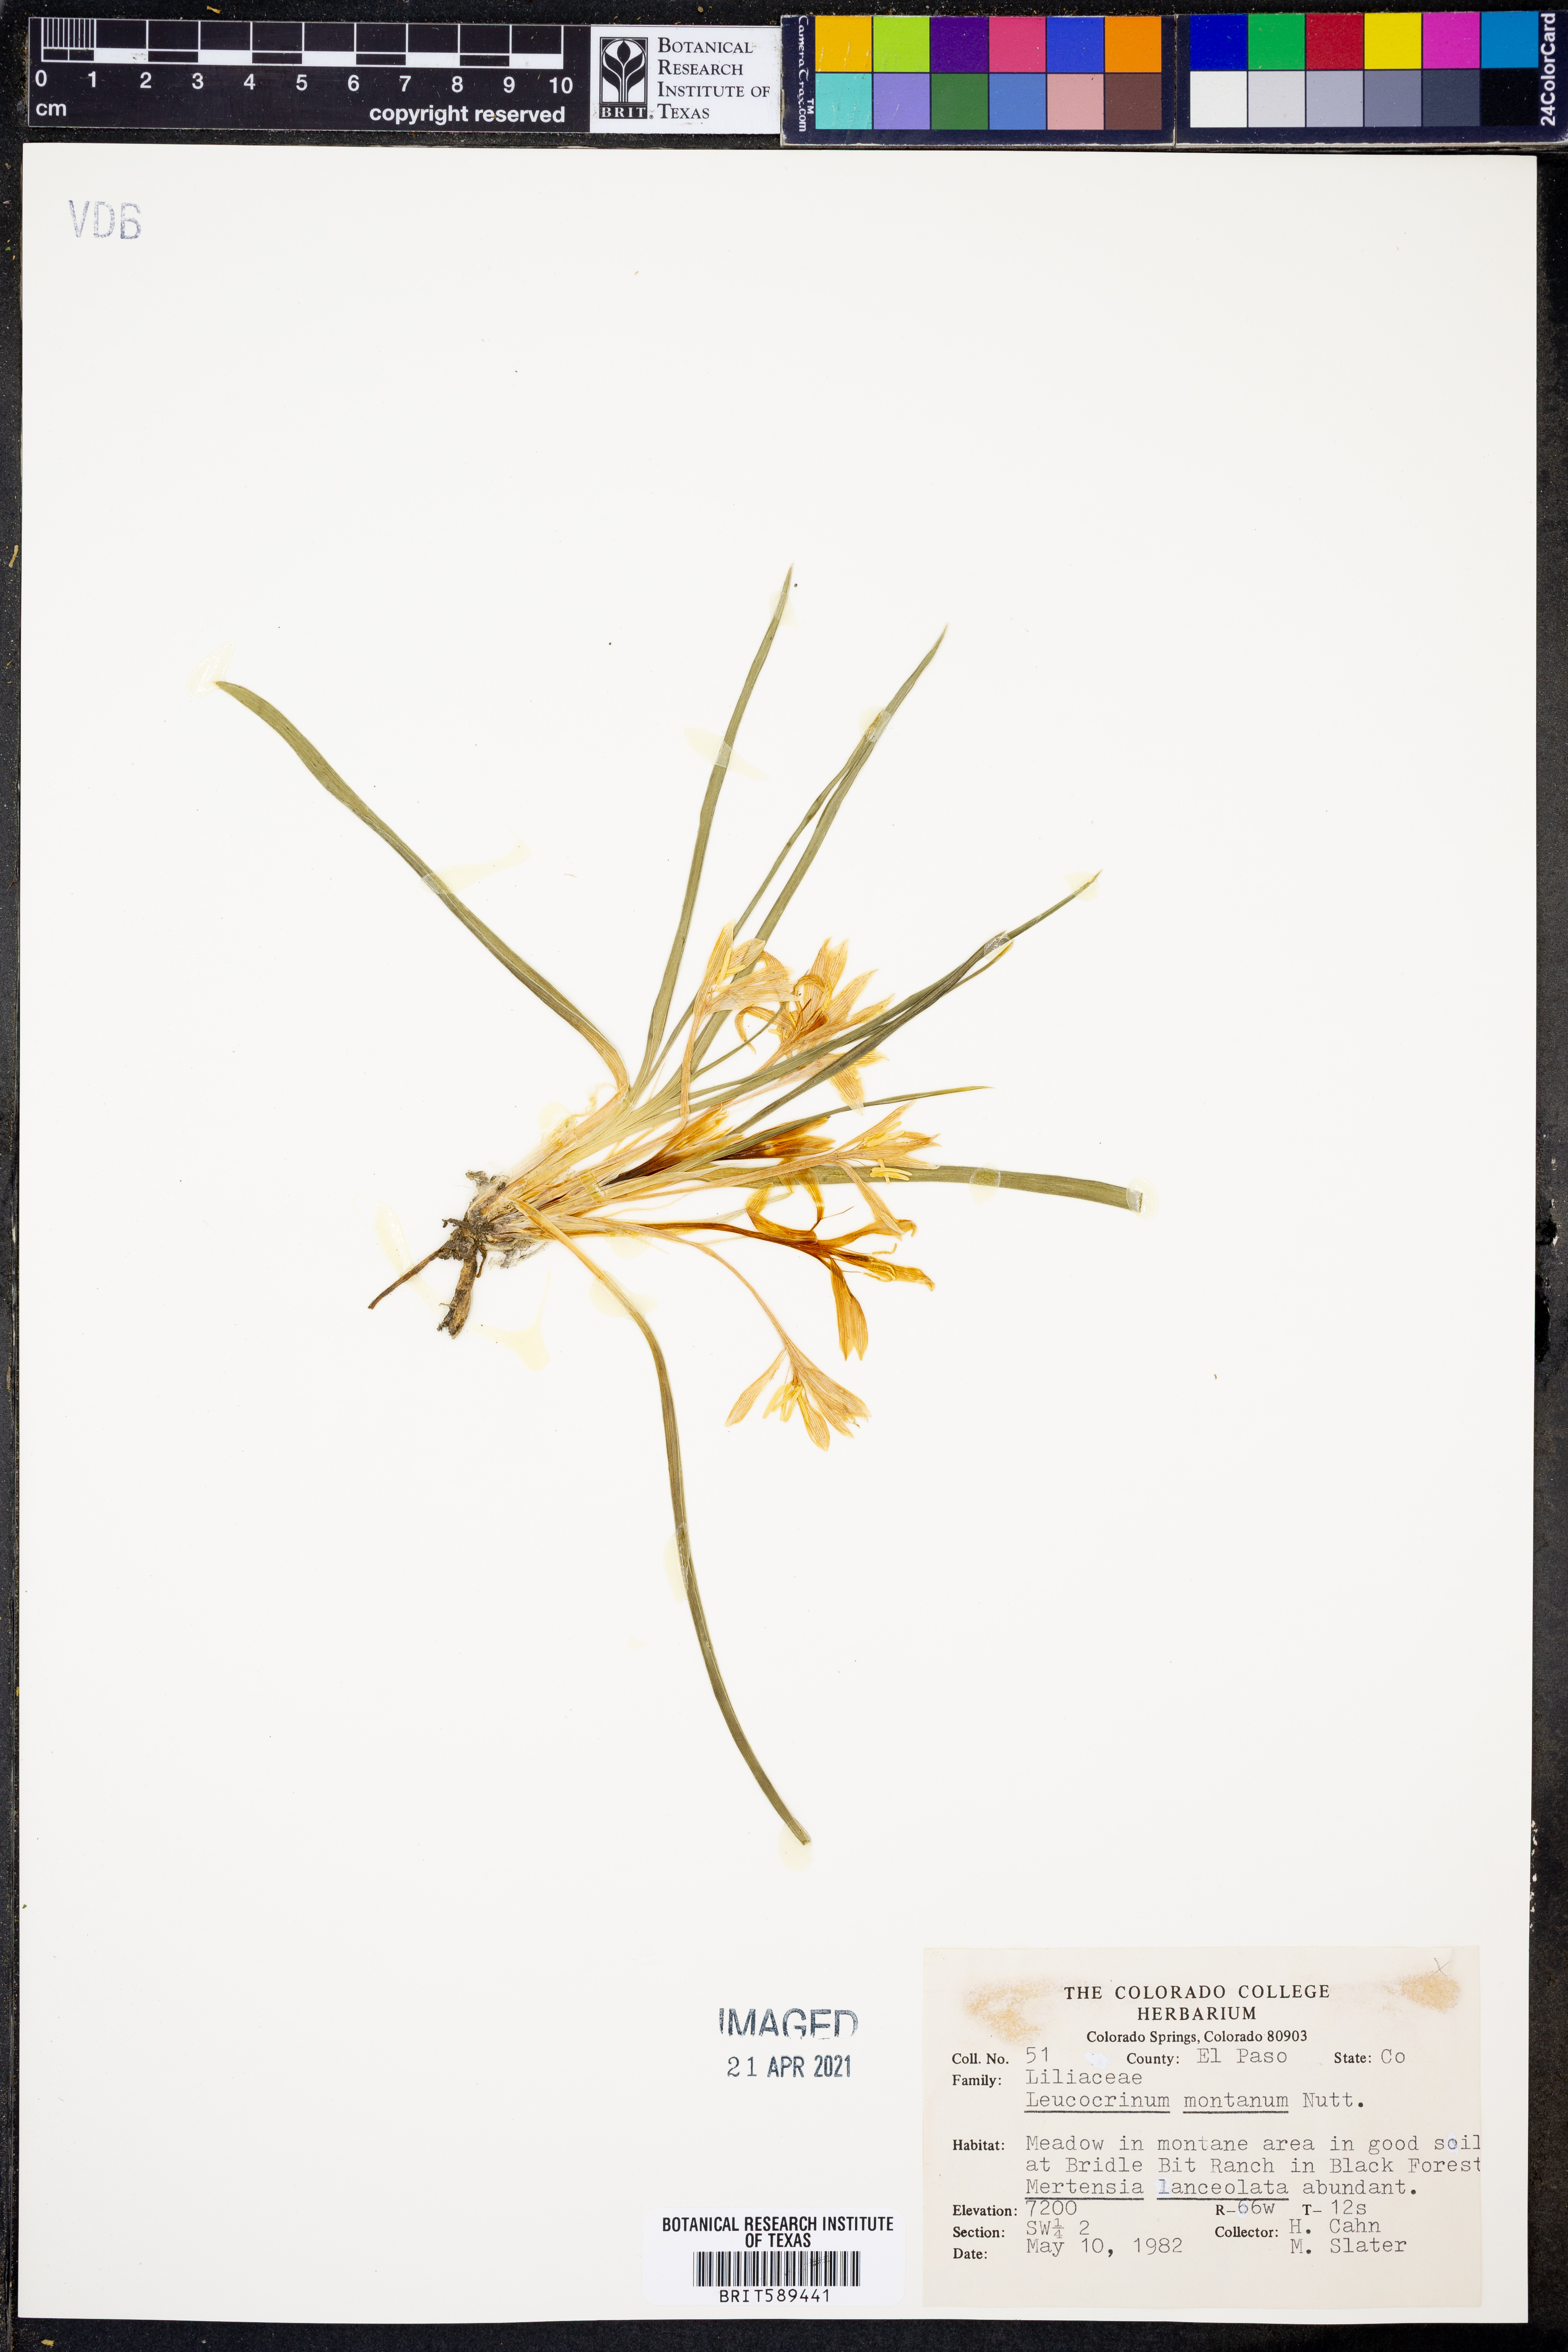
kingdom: Plantae
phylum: Tracheophyta
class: Liliopsida
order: Asparagales
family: Asparagaceae
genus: Leucocrinum
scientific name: Leucocrinum montanum
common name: Mountain-lily
